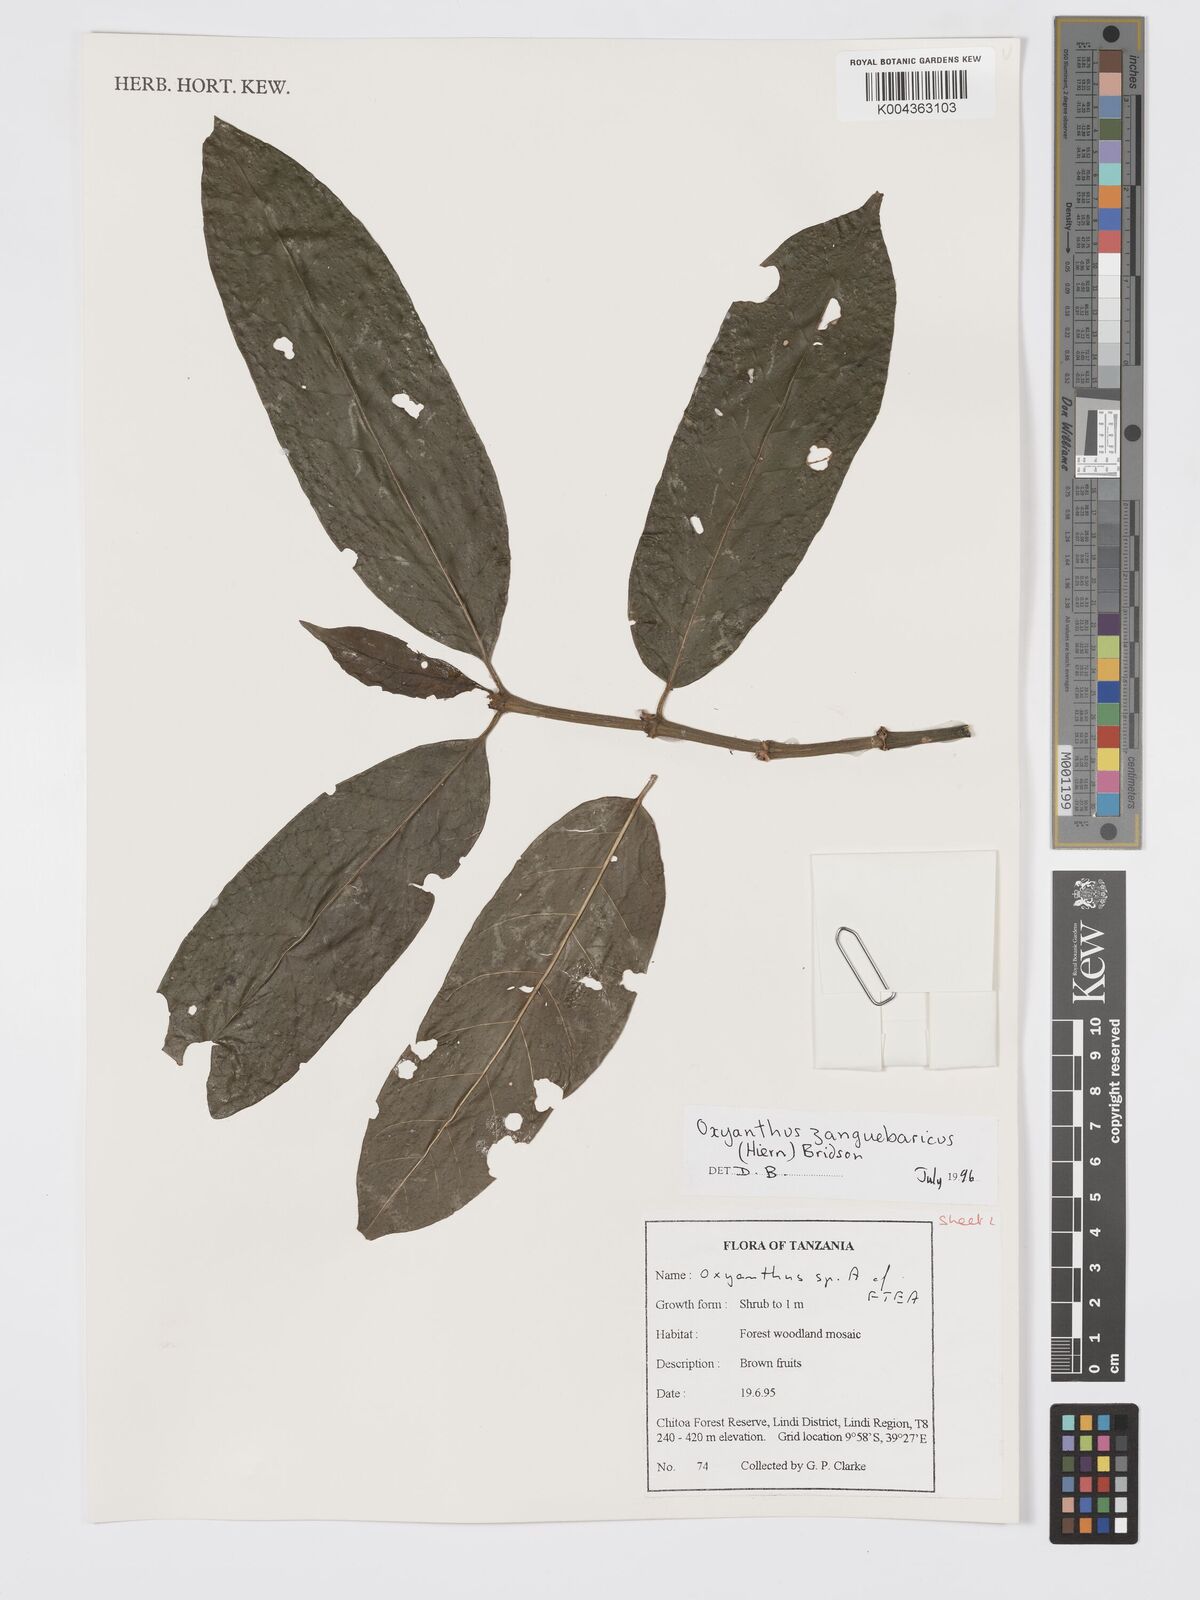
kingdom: Plantae
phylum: Tracheophyta
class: Magnoliopsida
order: Gentianales
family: Rubiaceae
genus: Oxyanthus
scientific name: Oxyanthus zanguebaricus
